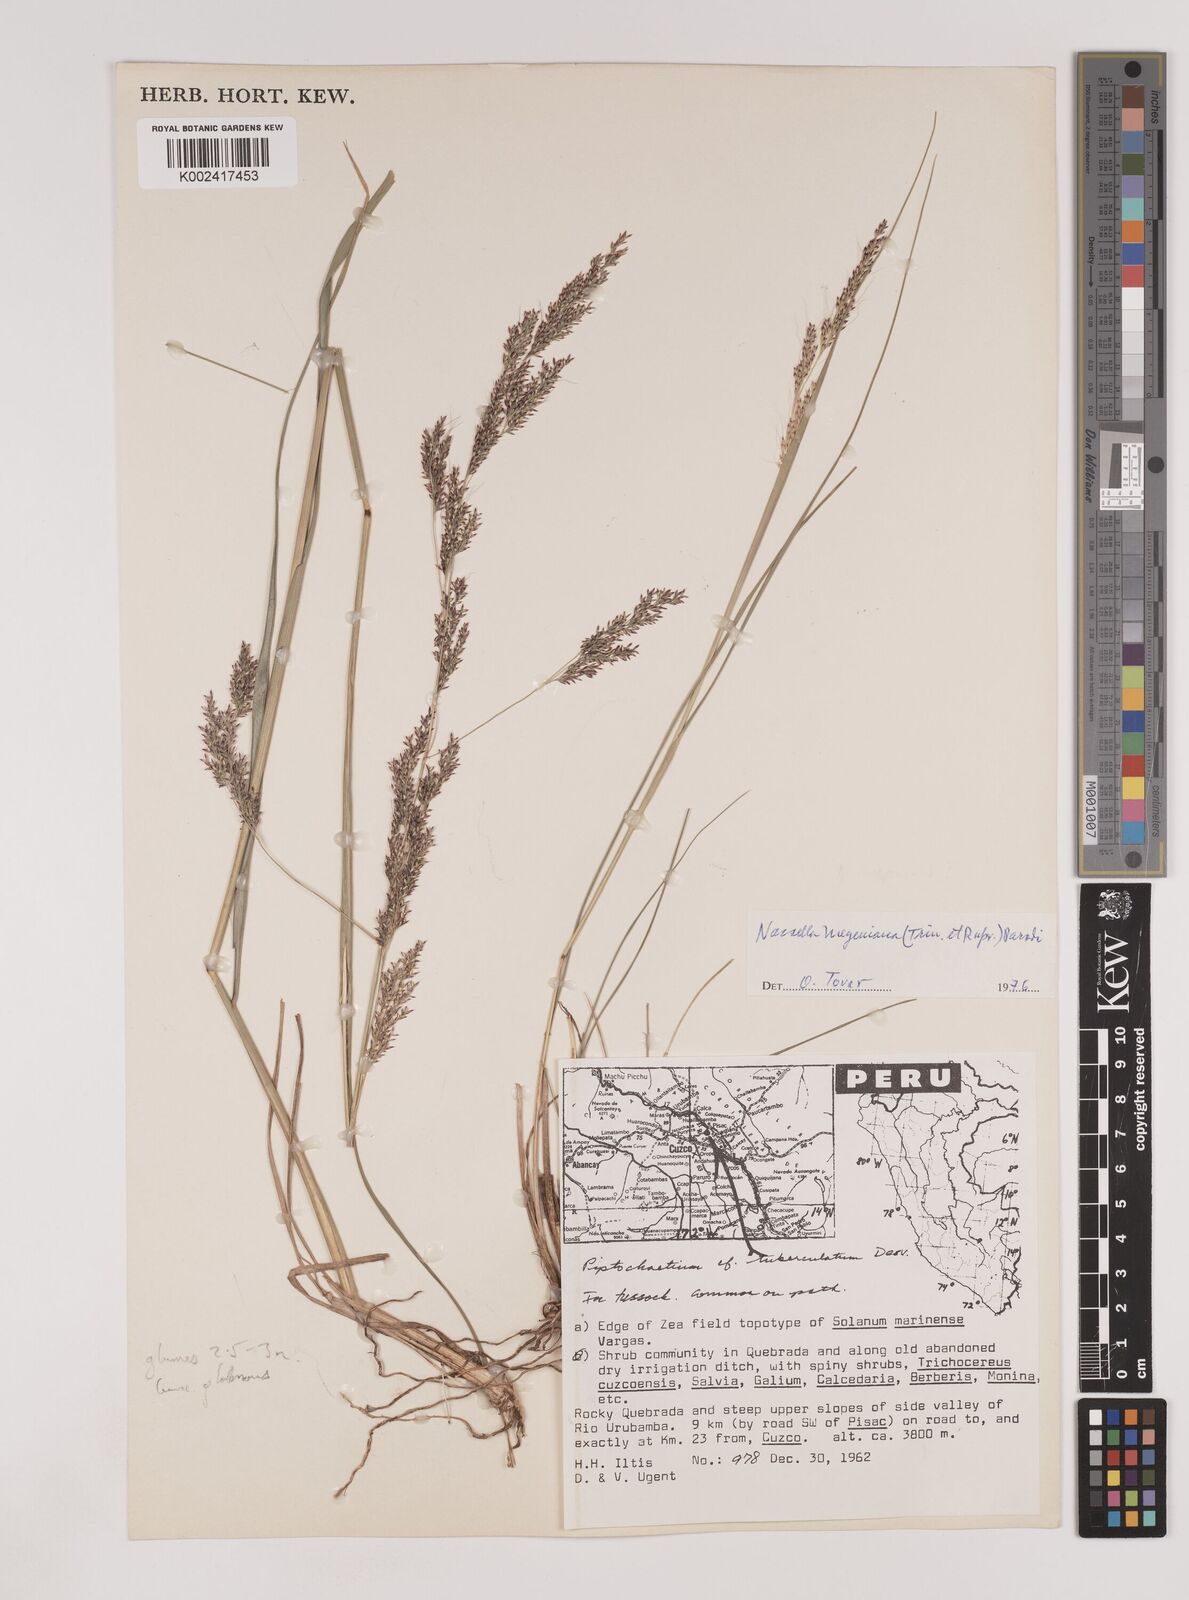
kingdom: Plantae
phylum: Tracheophyta
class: Liliopsida
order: Poales
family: Poaceae
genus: Nassella
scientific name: Nassella meyeniana
